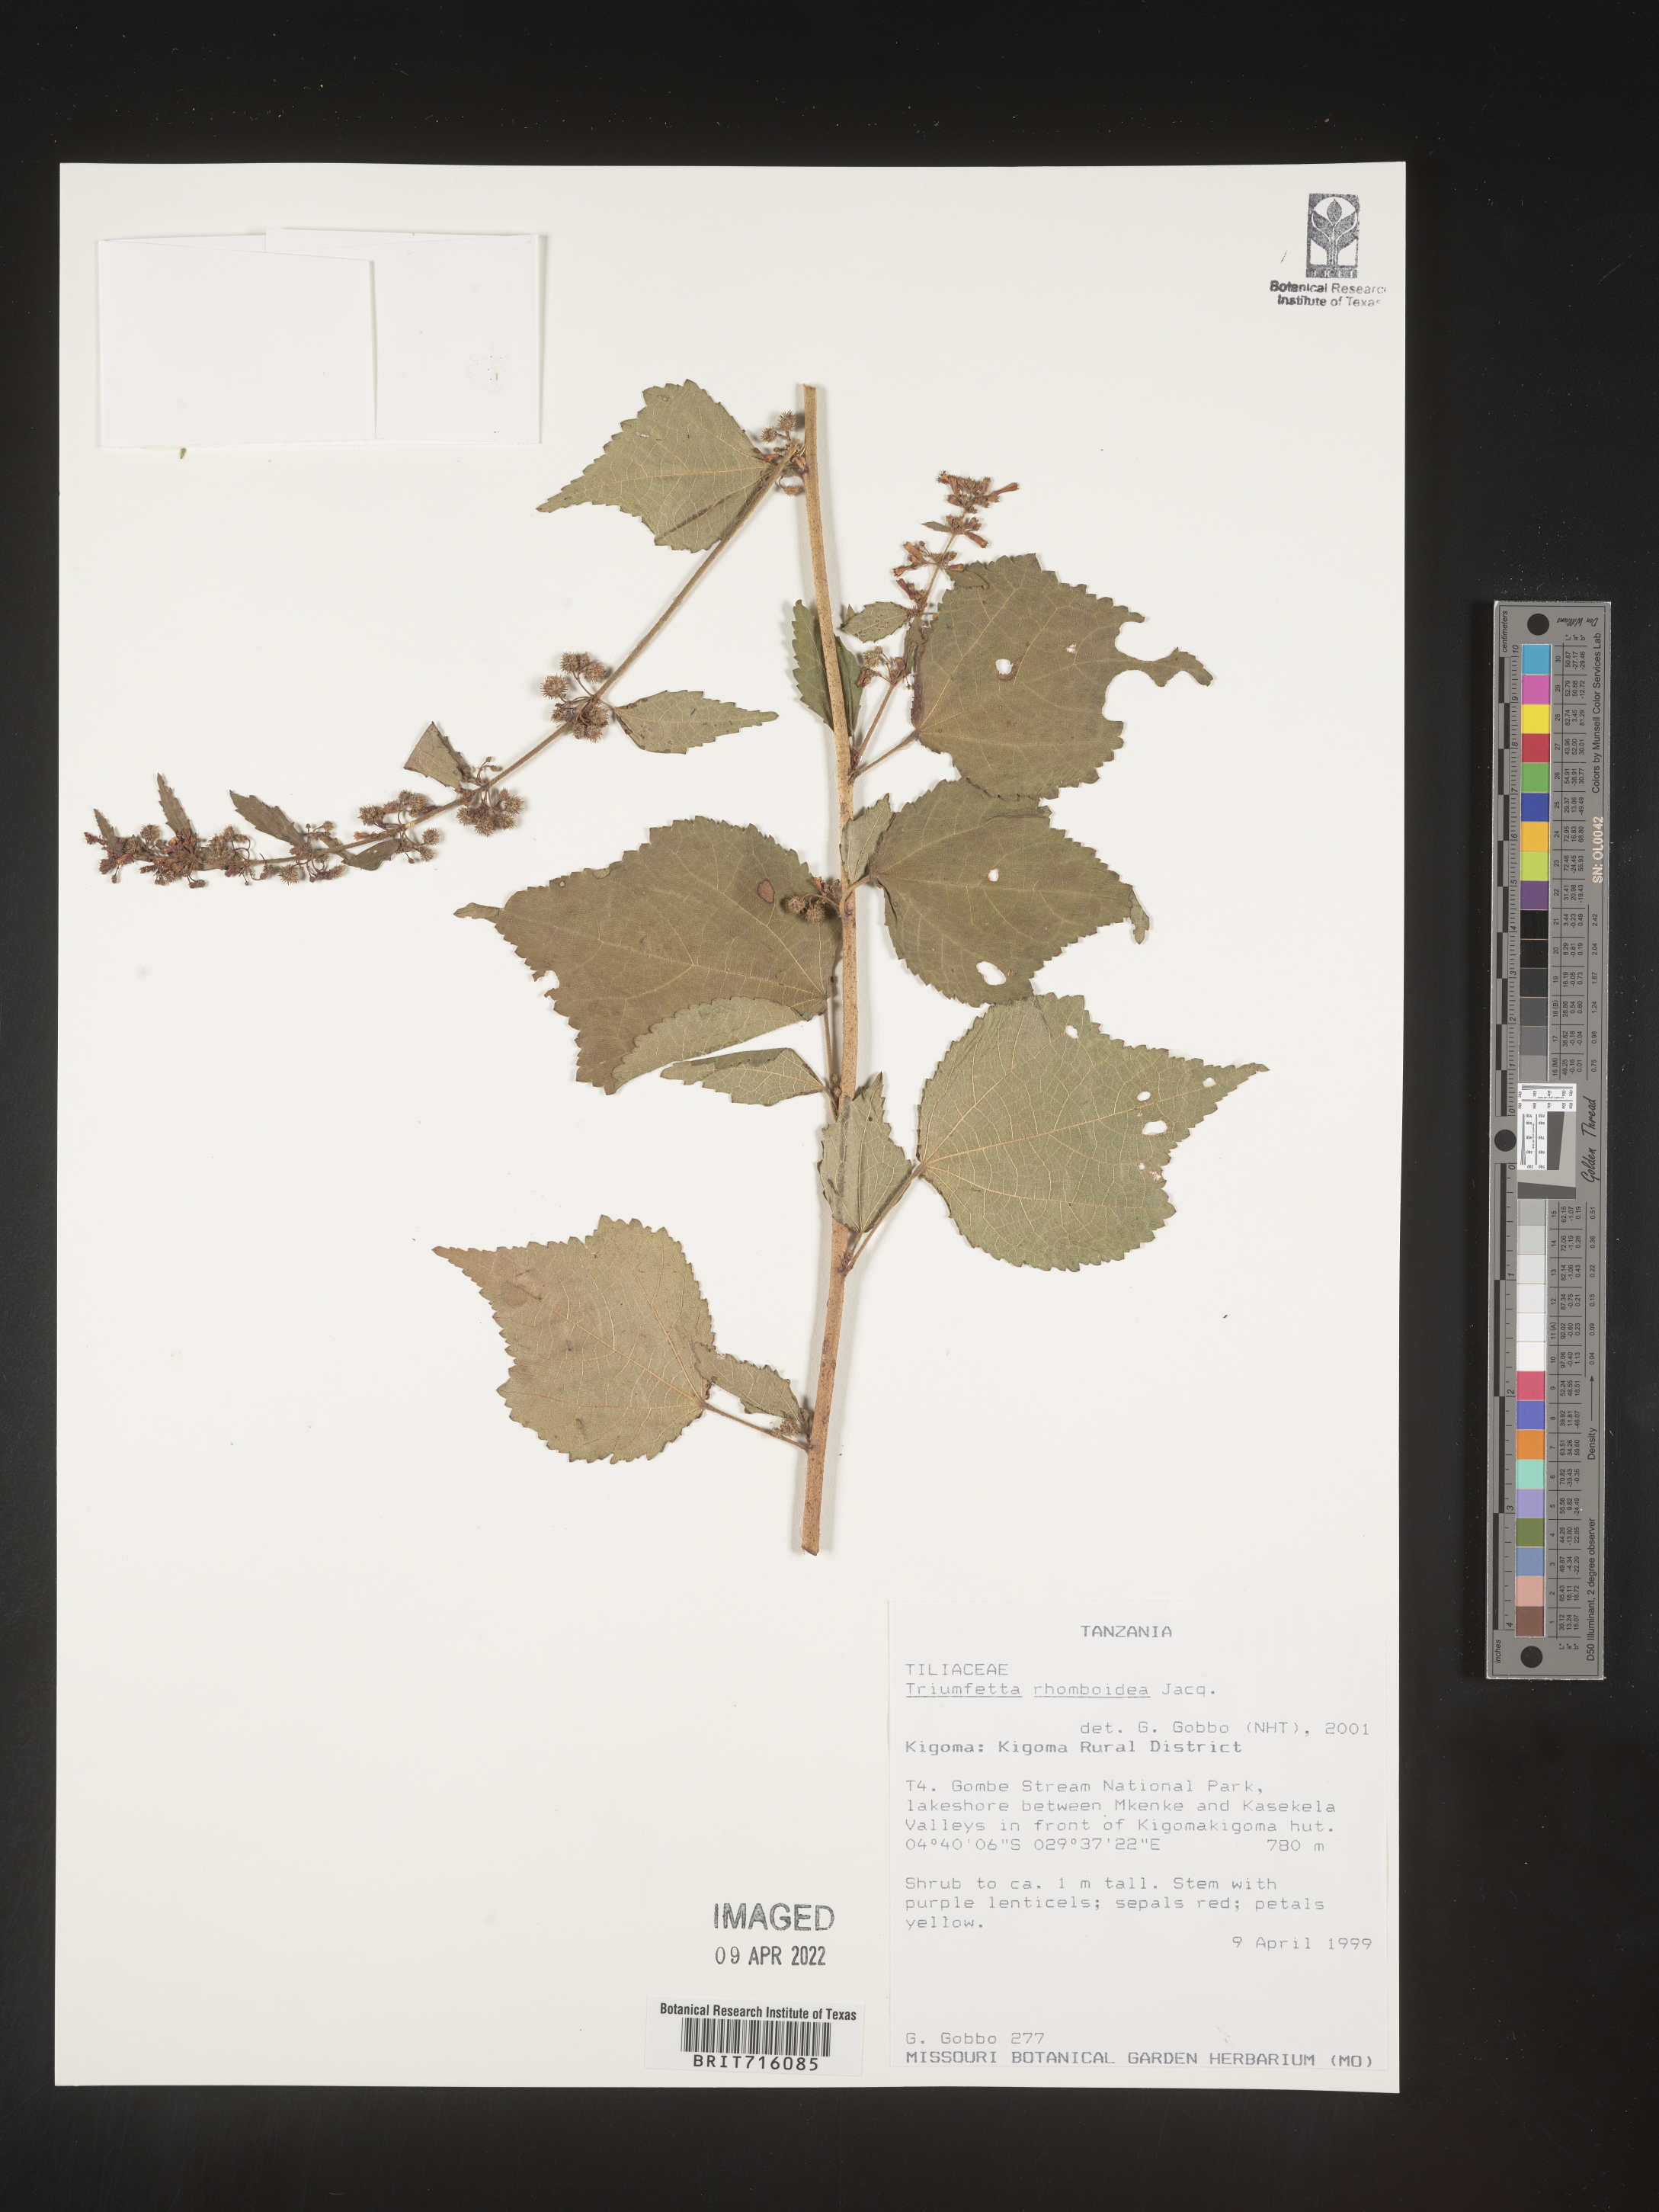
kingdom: Plantae
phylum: Tracheophyta
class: Magnoliopsida
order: Malvales
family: Malvaceae
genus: Triumfetta
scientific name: Triumfetta rhomboidea
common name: Diamond burbark
